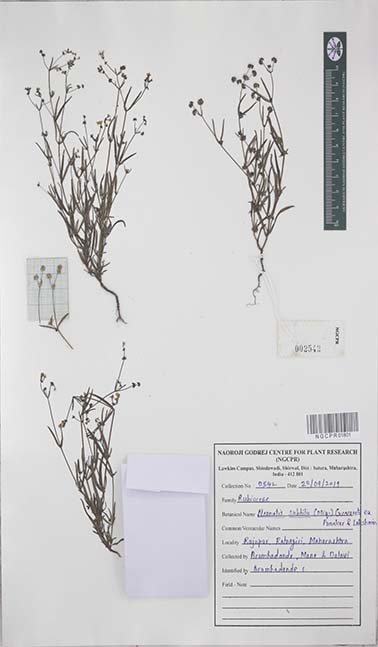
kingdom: Plantae
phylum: Tracheophyta
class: Magnoliopsida
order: Gentianales
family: Rubiaceae
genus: Neanotis
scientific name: Neanotis subtilis
